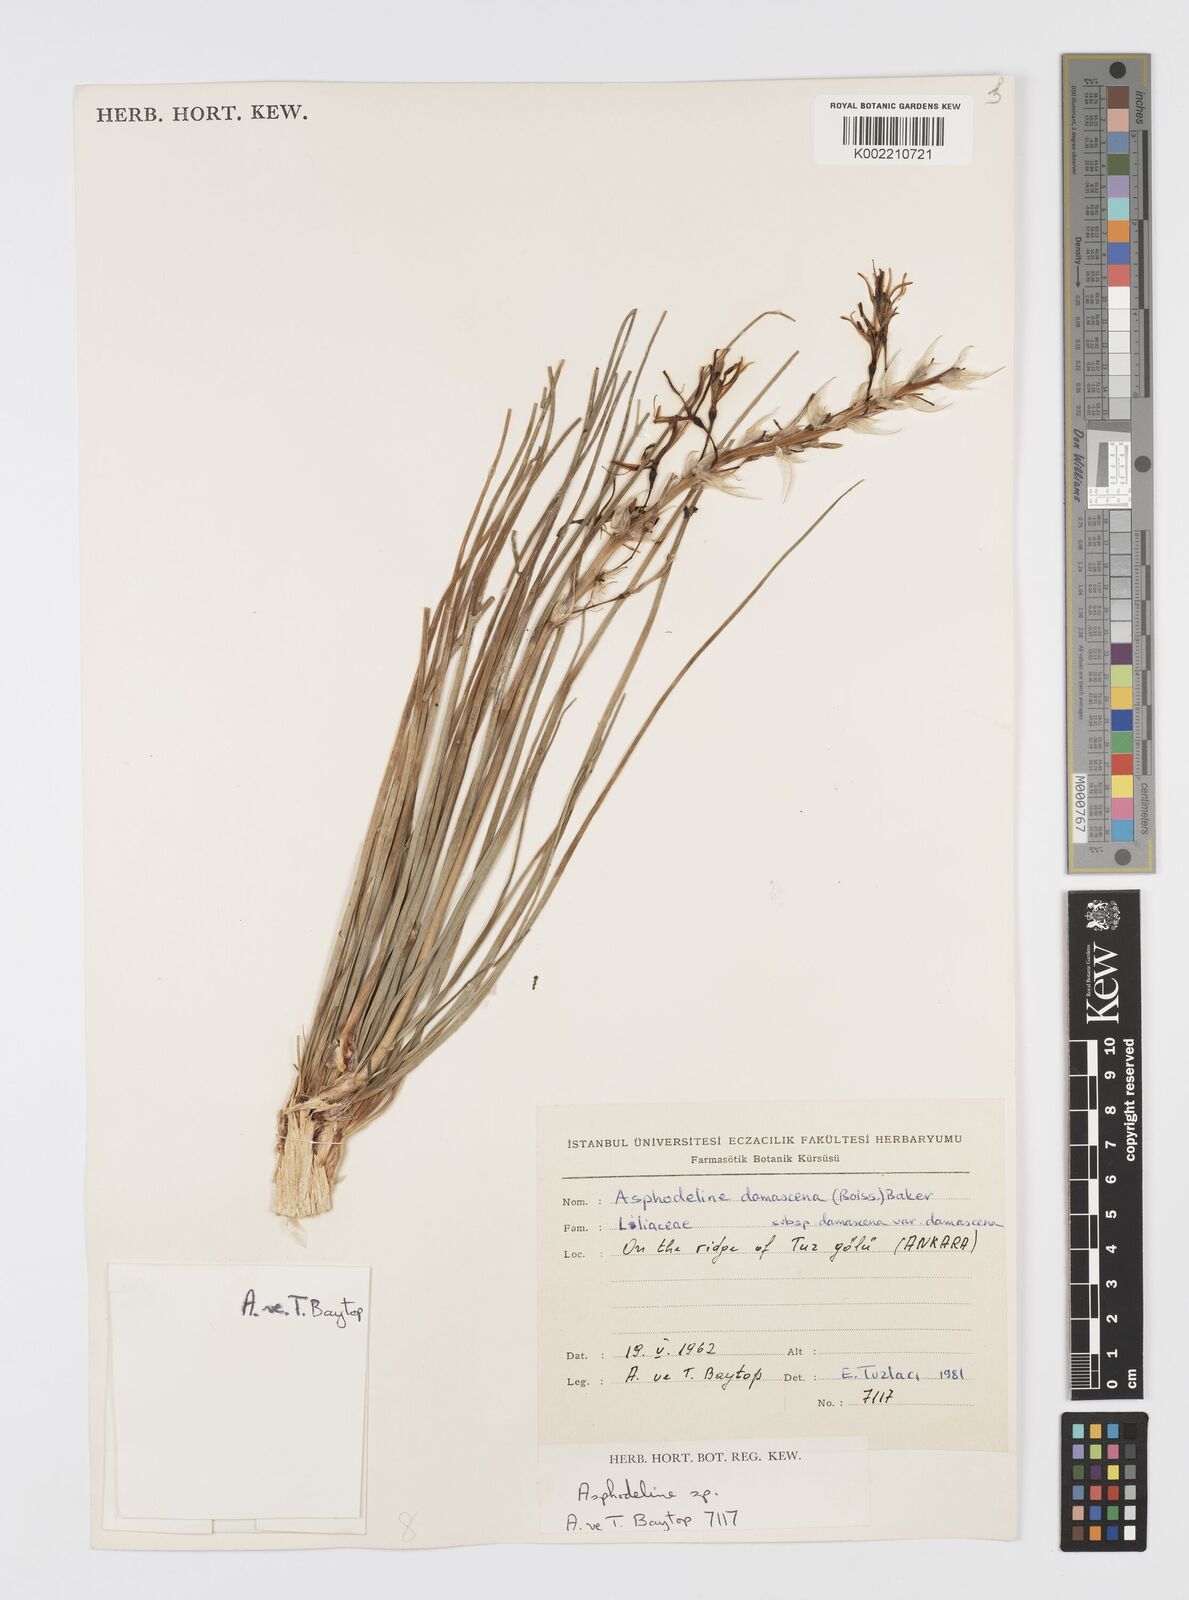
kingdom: Plantae
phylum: Tracheophyta
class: Liliopsida
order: Asparagales
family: Asphodelaceae
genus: Asphodeline
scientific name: Asphodeline damascena
